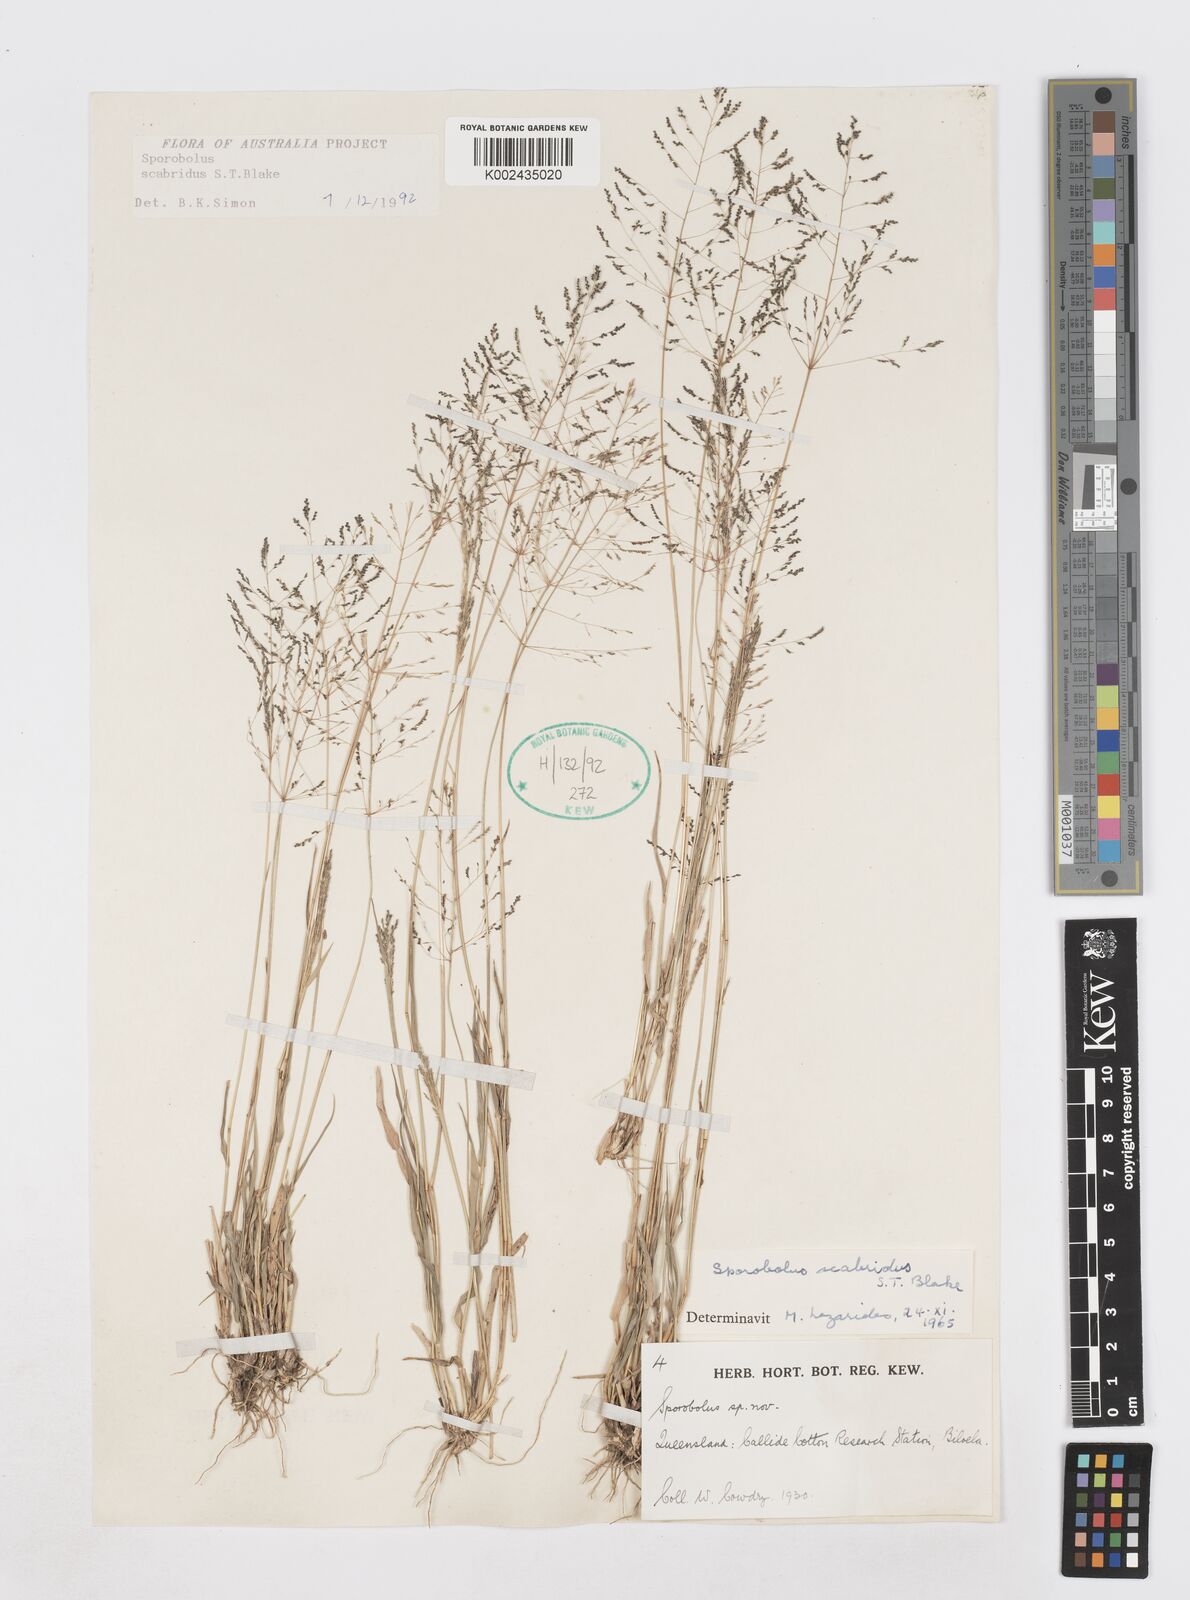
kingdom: Plantae
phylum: Tracheophyta
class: Liliopsida
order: Poales
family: Poaceae
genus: Sporobolus
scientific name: Sporobolus scabridus
